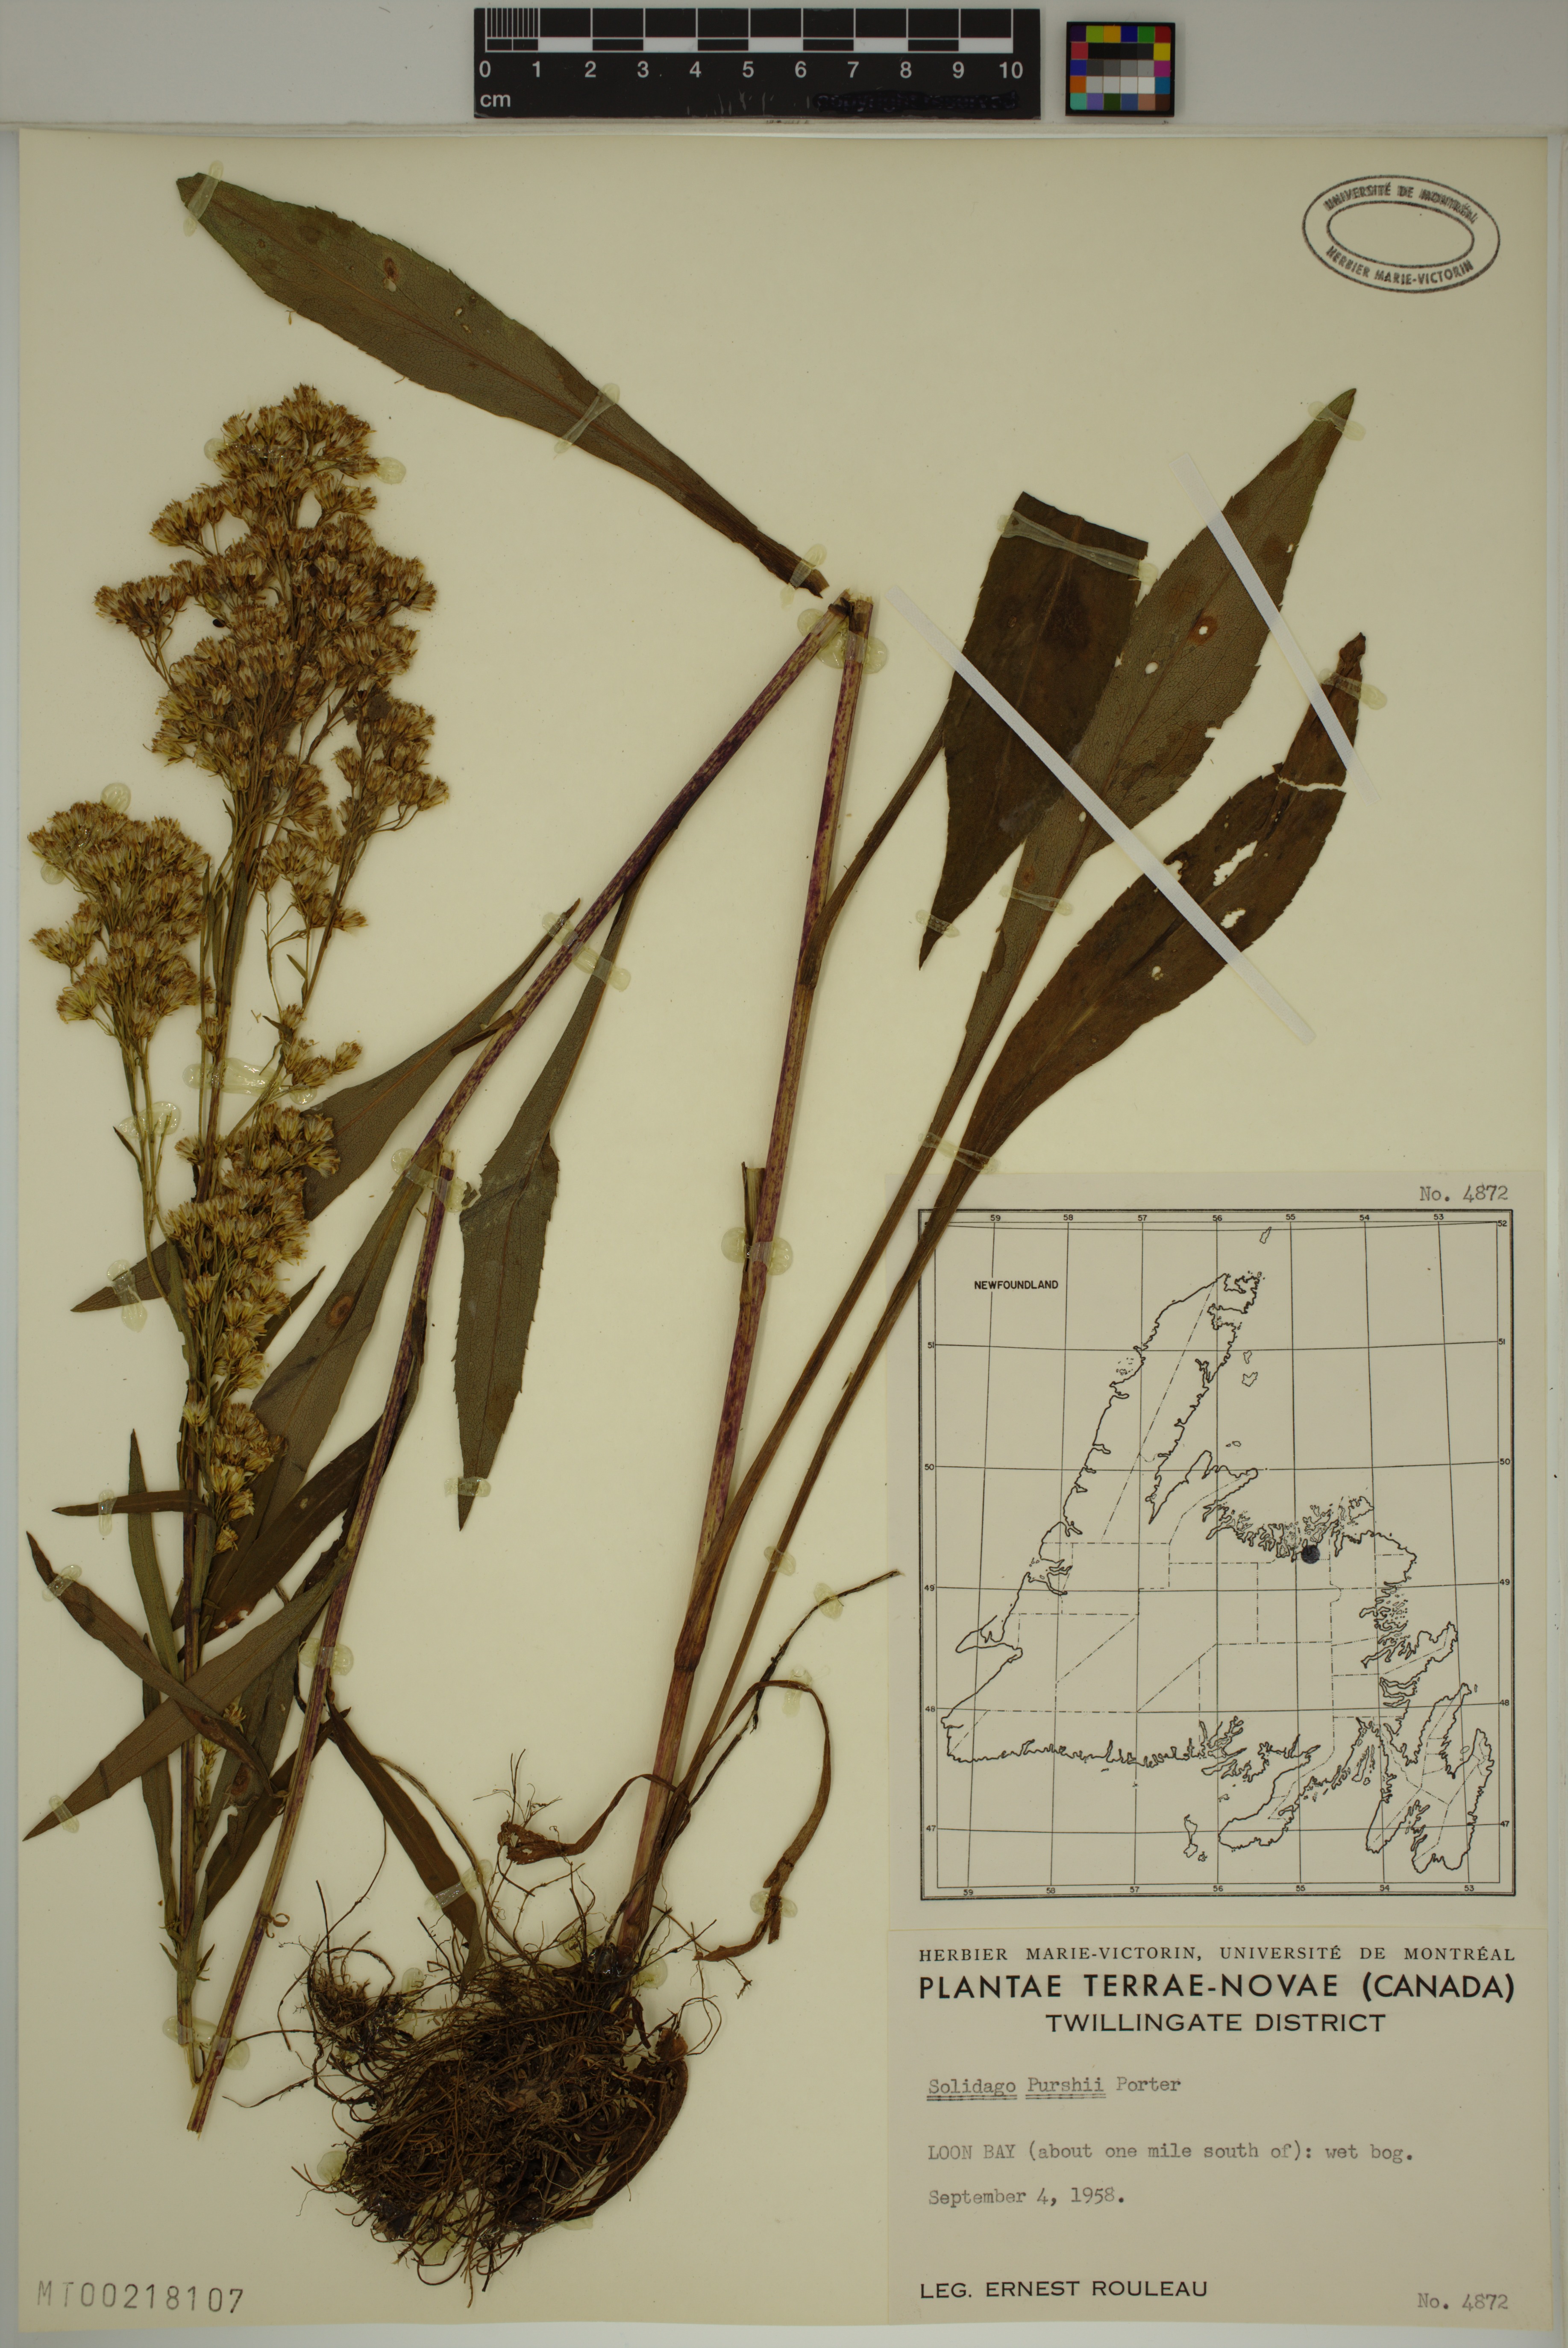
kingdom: Plantae
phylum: Tracheophyta
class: Magnoliopsida
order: Asterales
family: Asteraceae
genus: Solidago
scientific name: Solidago uliginosa
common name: Bog goldenrod
